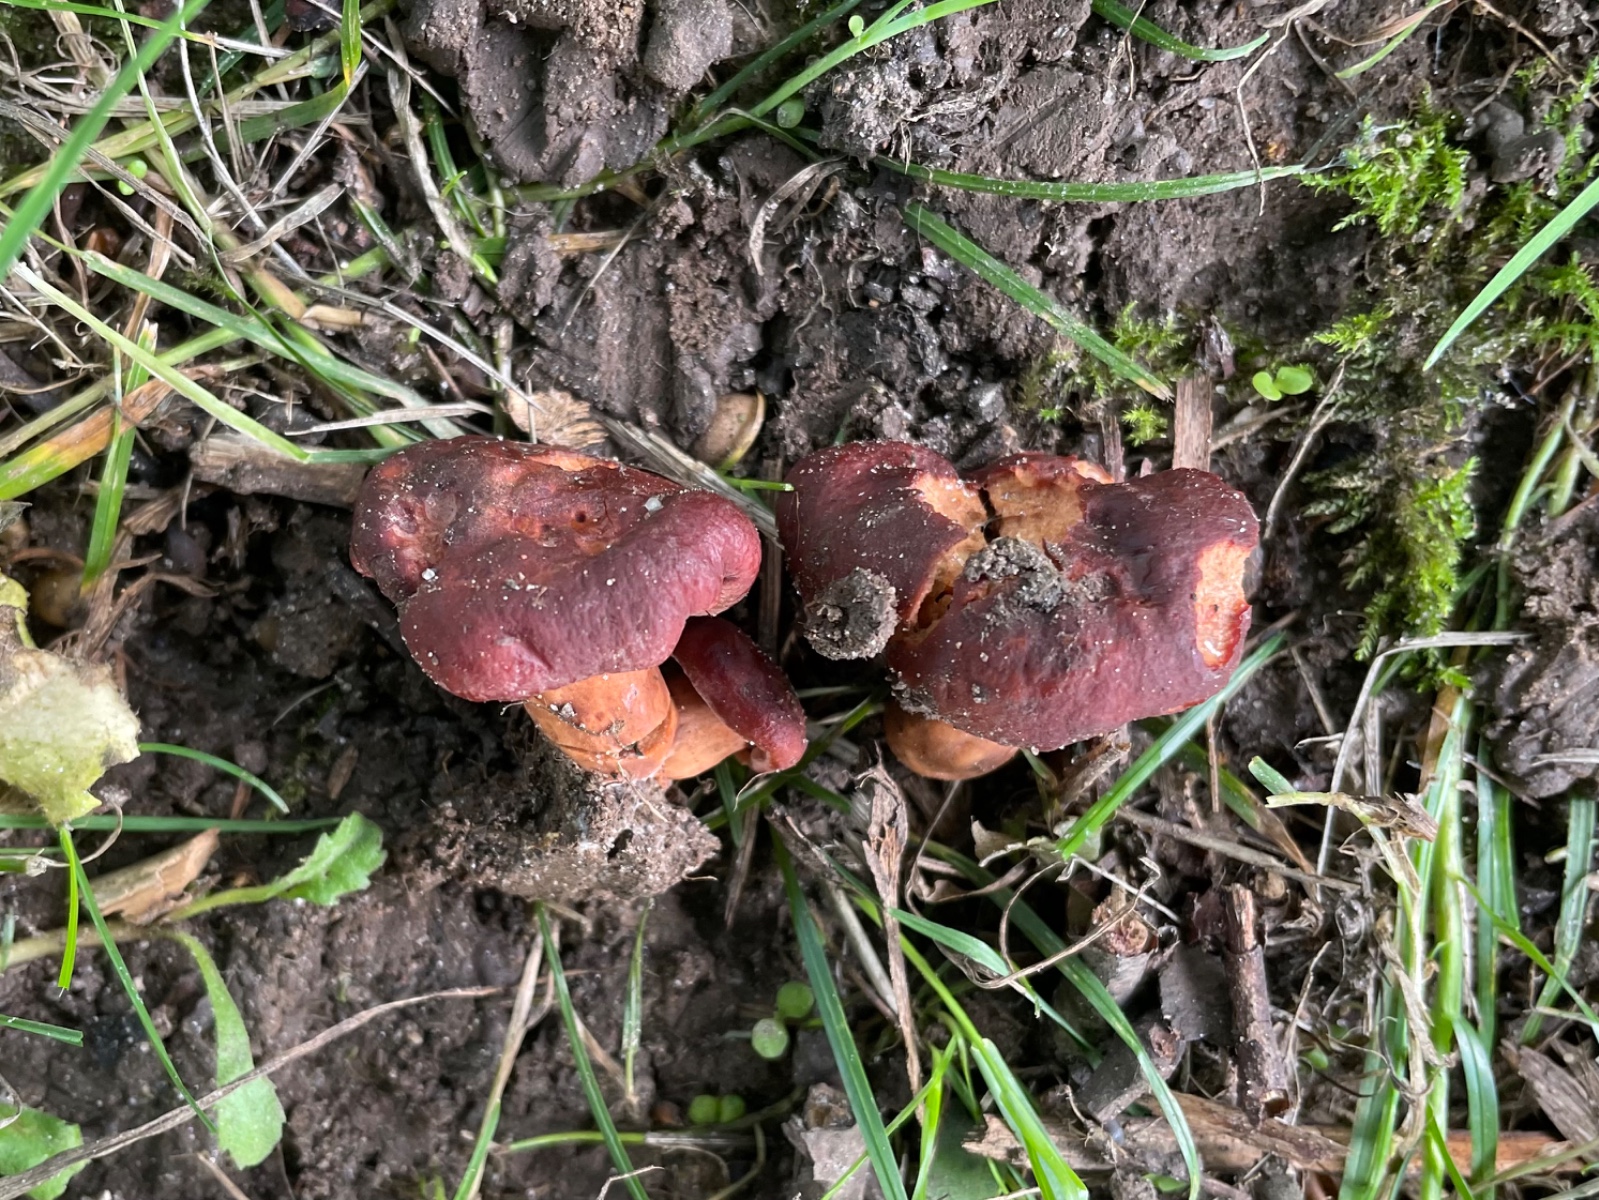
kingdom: Fungi
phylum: Basidiomycota
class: Agaricomycetes
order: Russulales
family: Russulaceae
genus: Lactarius
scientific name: Lactarius fulvissimus
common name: ræve-mælkehat
